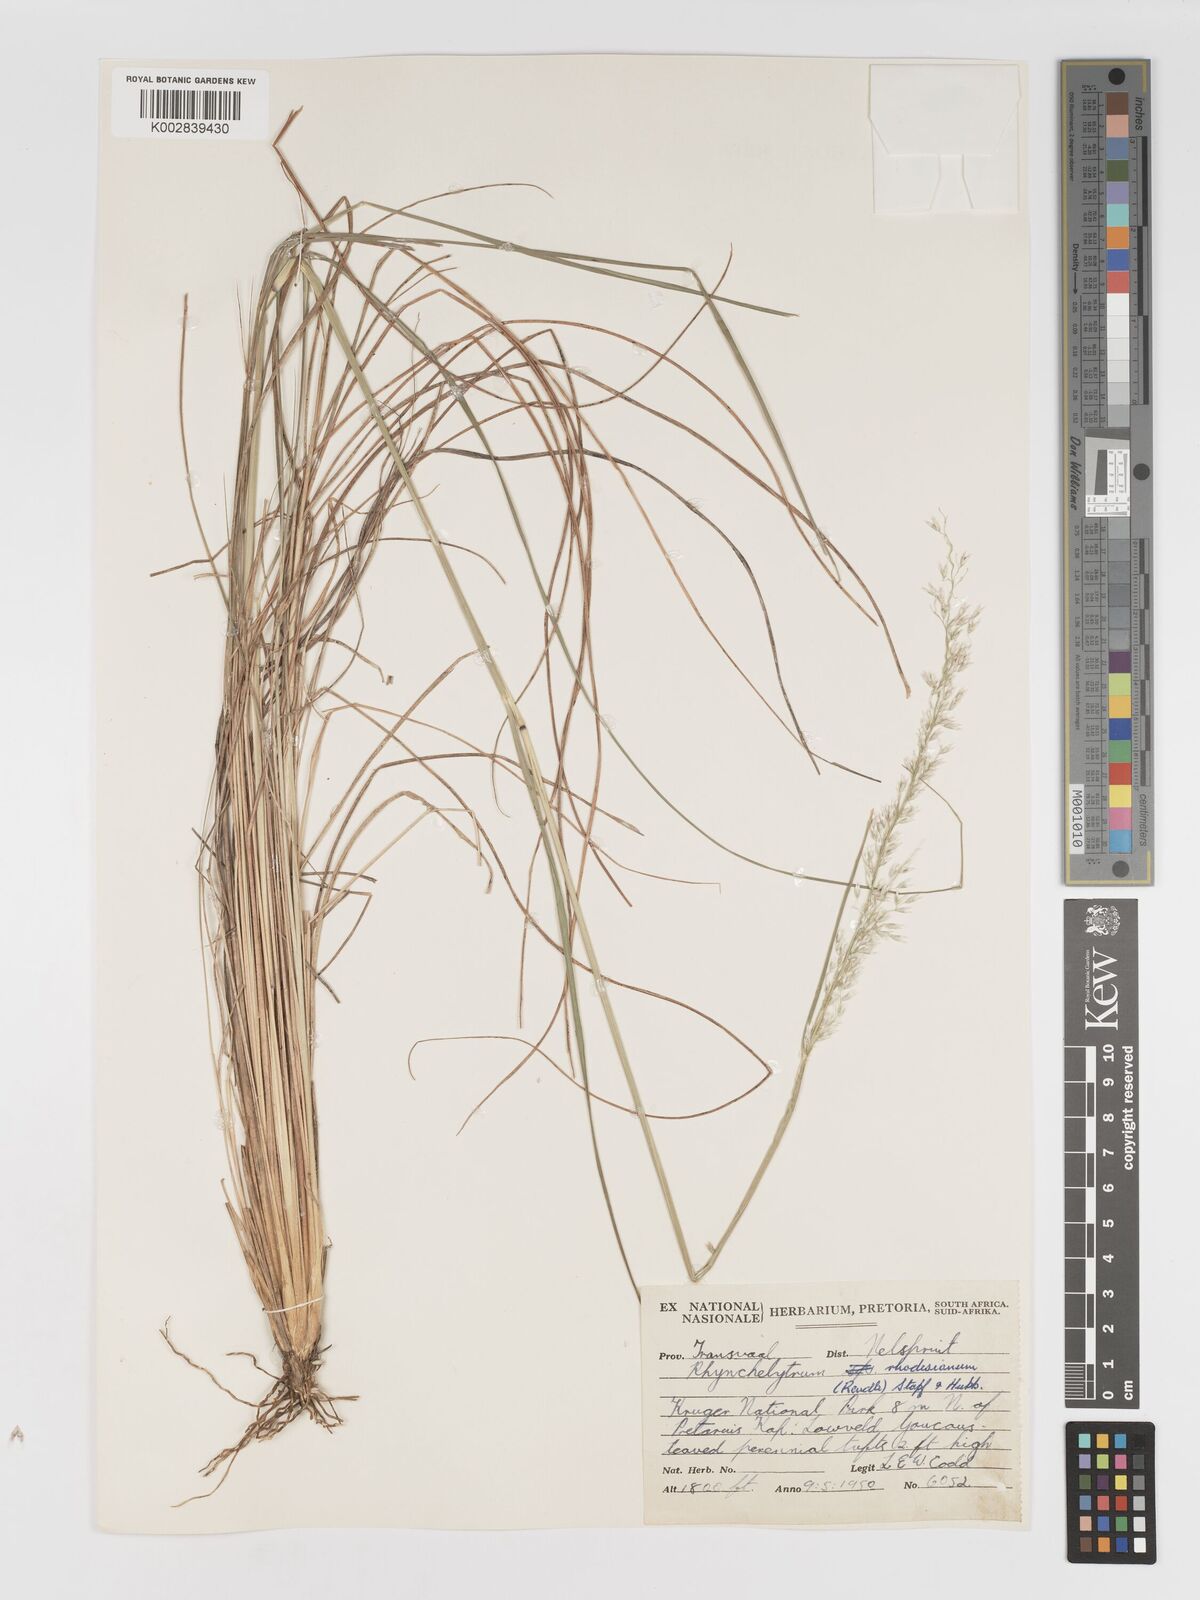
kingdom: Plantae
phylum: Tracheophyta
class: Liliopsida
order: Poales
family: Poaceae
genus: Melinis
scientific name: Melinis nerviglumis
